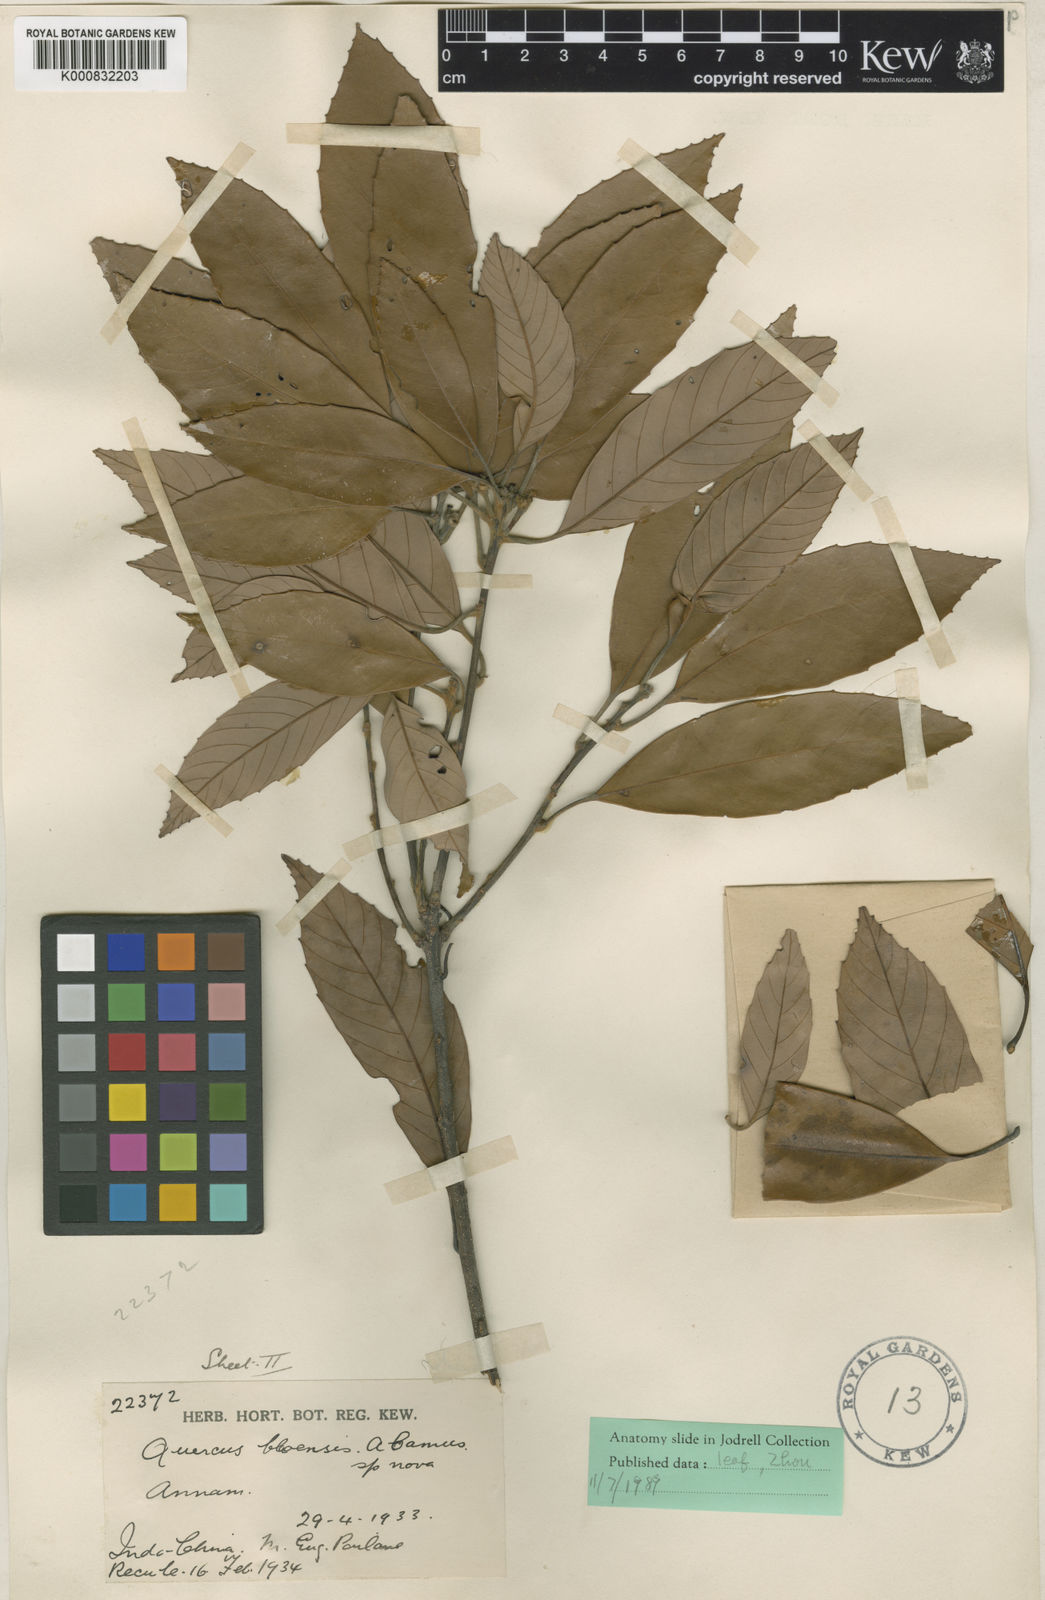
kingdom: Plantae
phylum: Tracheophyta
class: Magnoliopsida
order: Fagales
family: Fagaceae
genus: Quercus
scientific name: Quercus langbianensis
